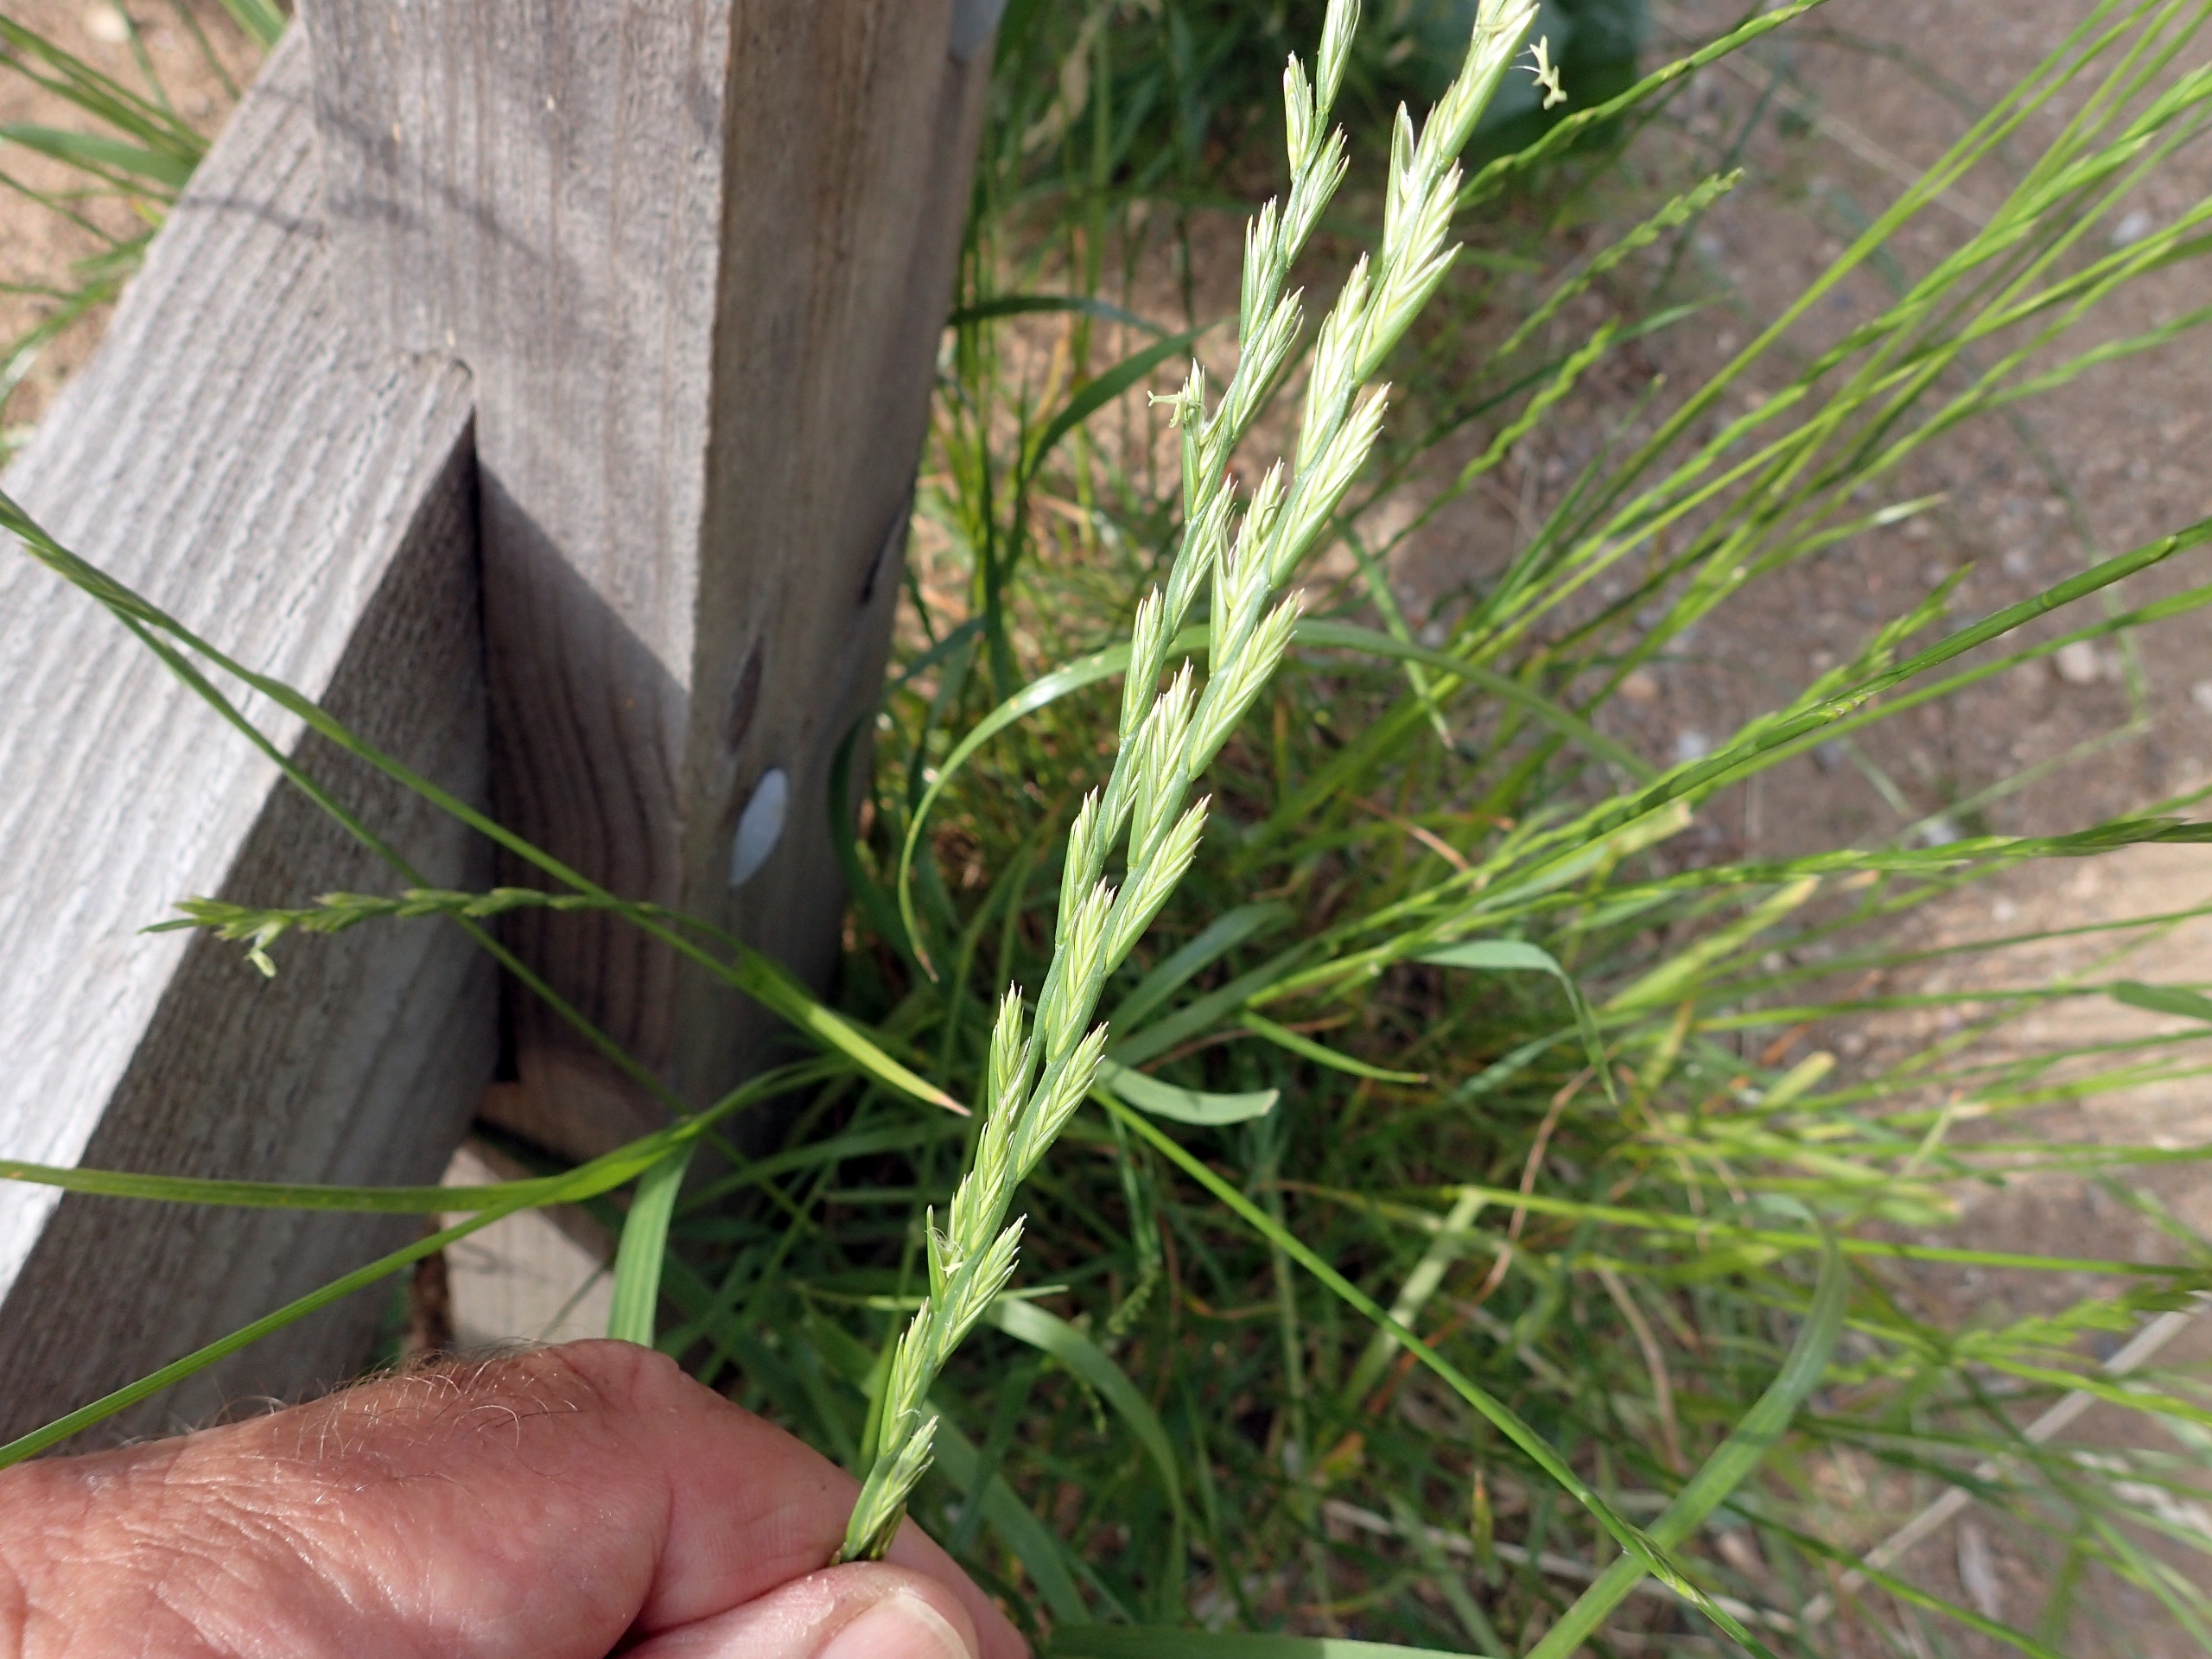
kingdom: Plantae
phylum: Tracheophyta
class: Liliopsida
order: Poales
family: Poaceae
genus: Lolium
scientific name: Lolium perenne
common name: Almindelig rajgræs
